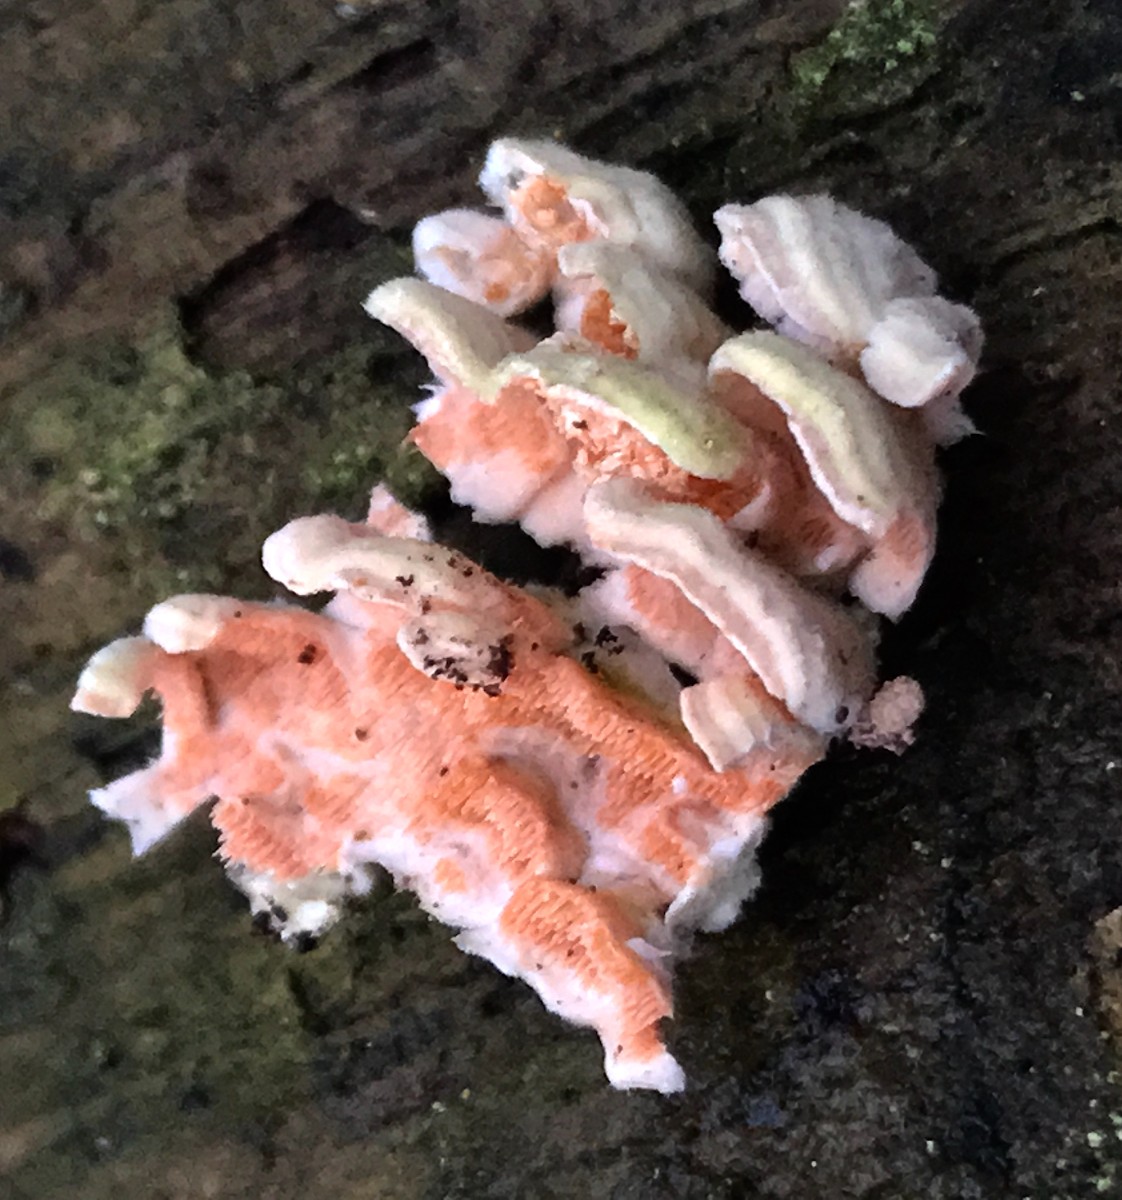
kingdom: Fungi
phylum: Basidiomycota
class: Agaricomycetes
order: Polyporales
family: Steccherinaceae
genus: Steccherinum
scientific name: Steccherinum ochraceum
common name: almindelig skønpig
